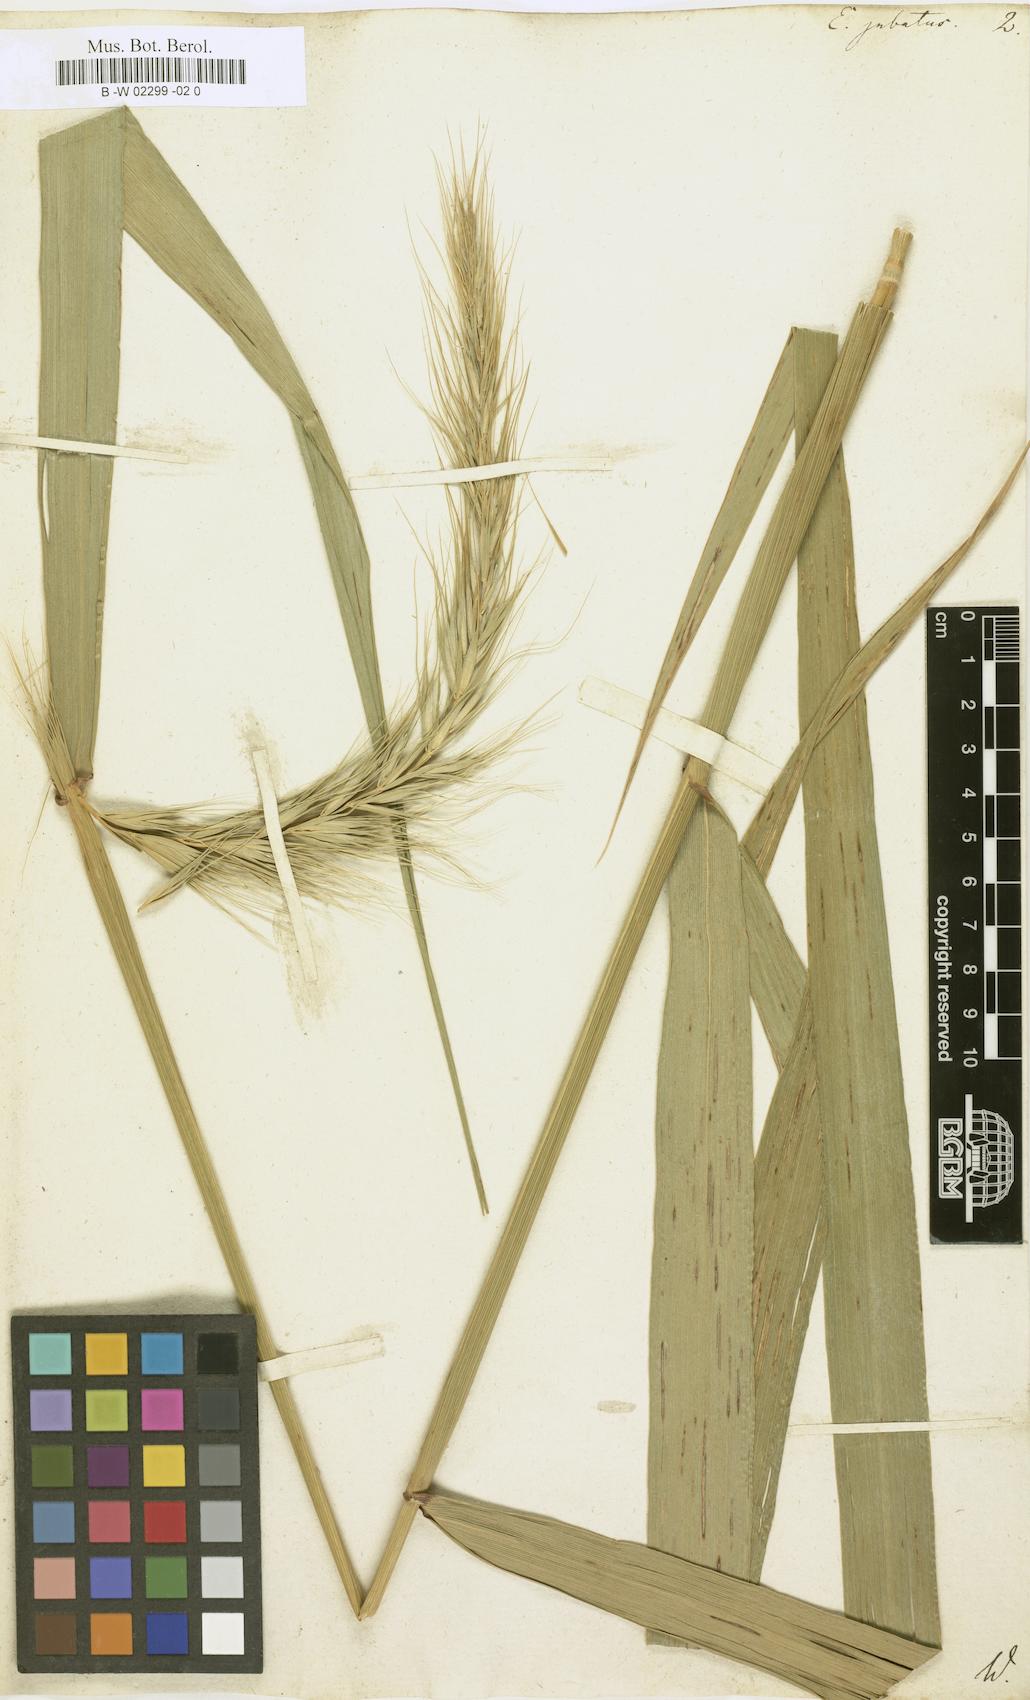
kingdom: Plantae
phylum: Tracheophyta
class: Liliopsida
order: Poales
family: Poaceae
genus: Hordeum
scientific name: Hordeum jubatum
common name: Foxtail barley
